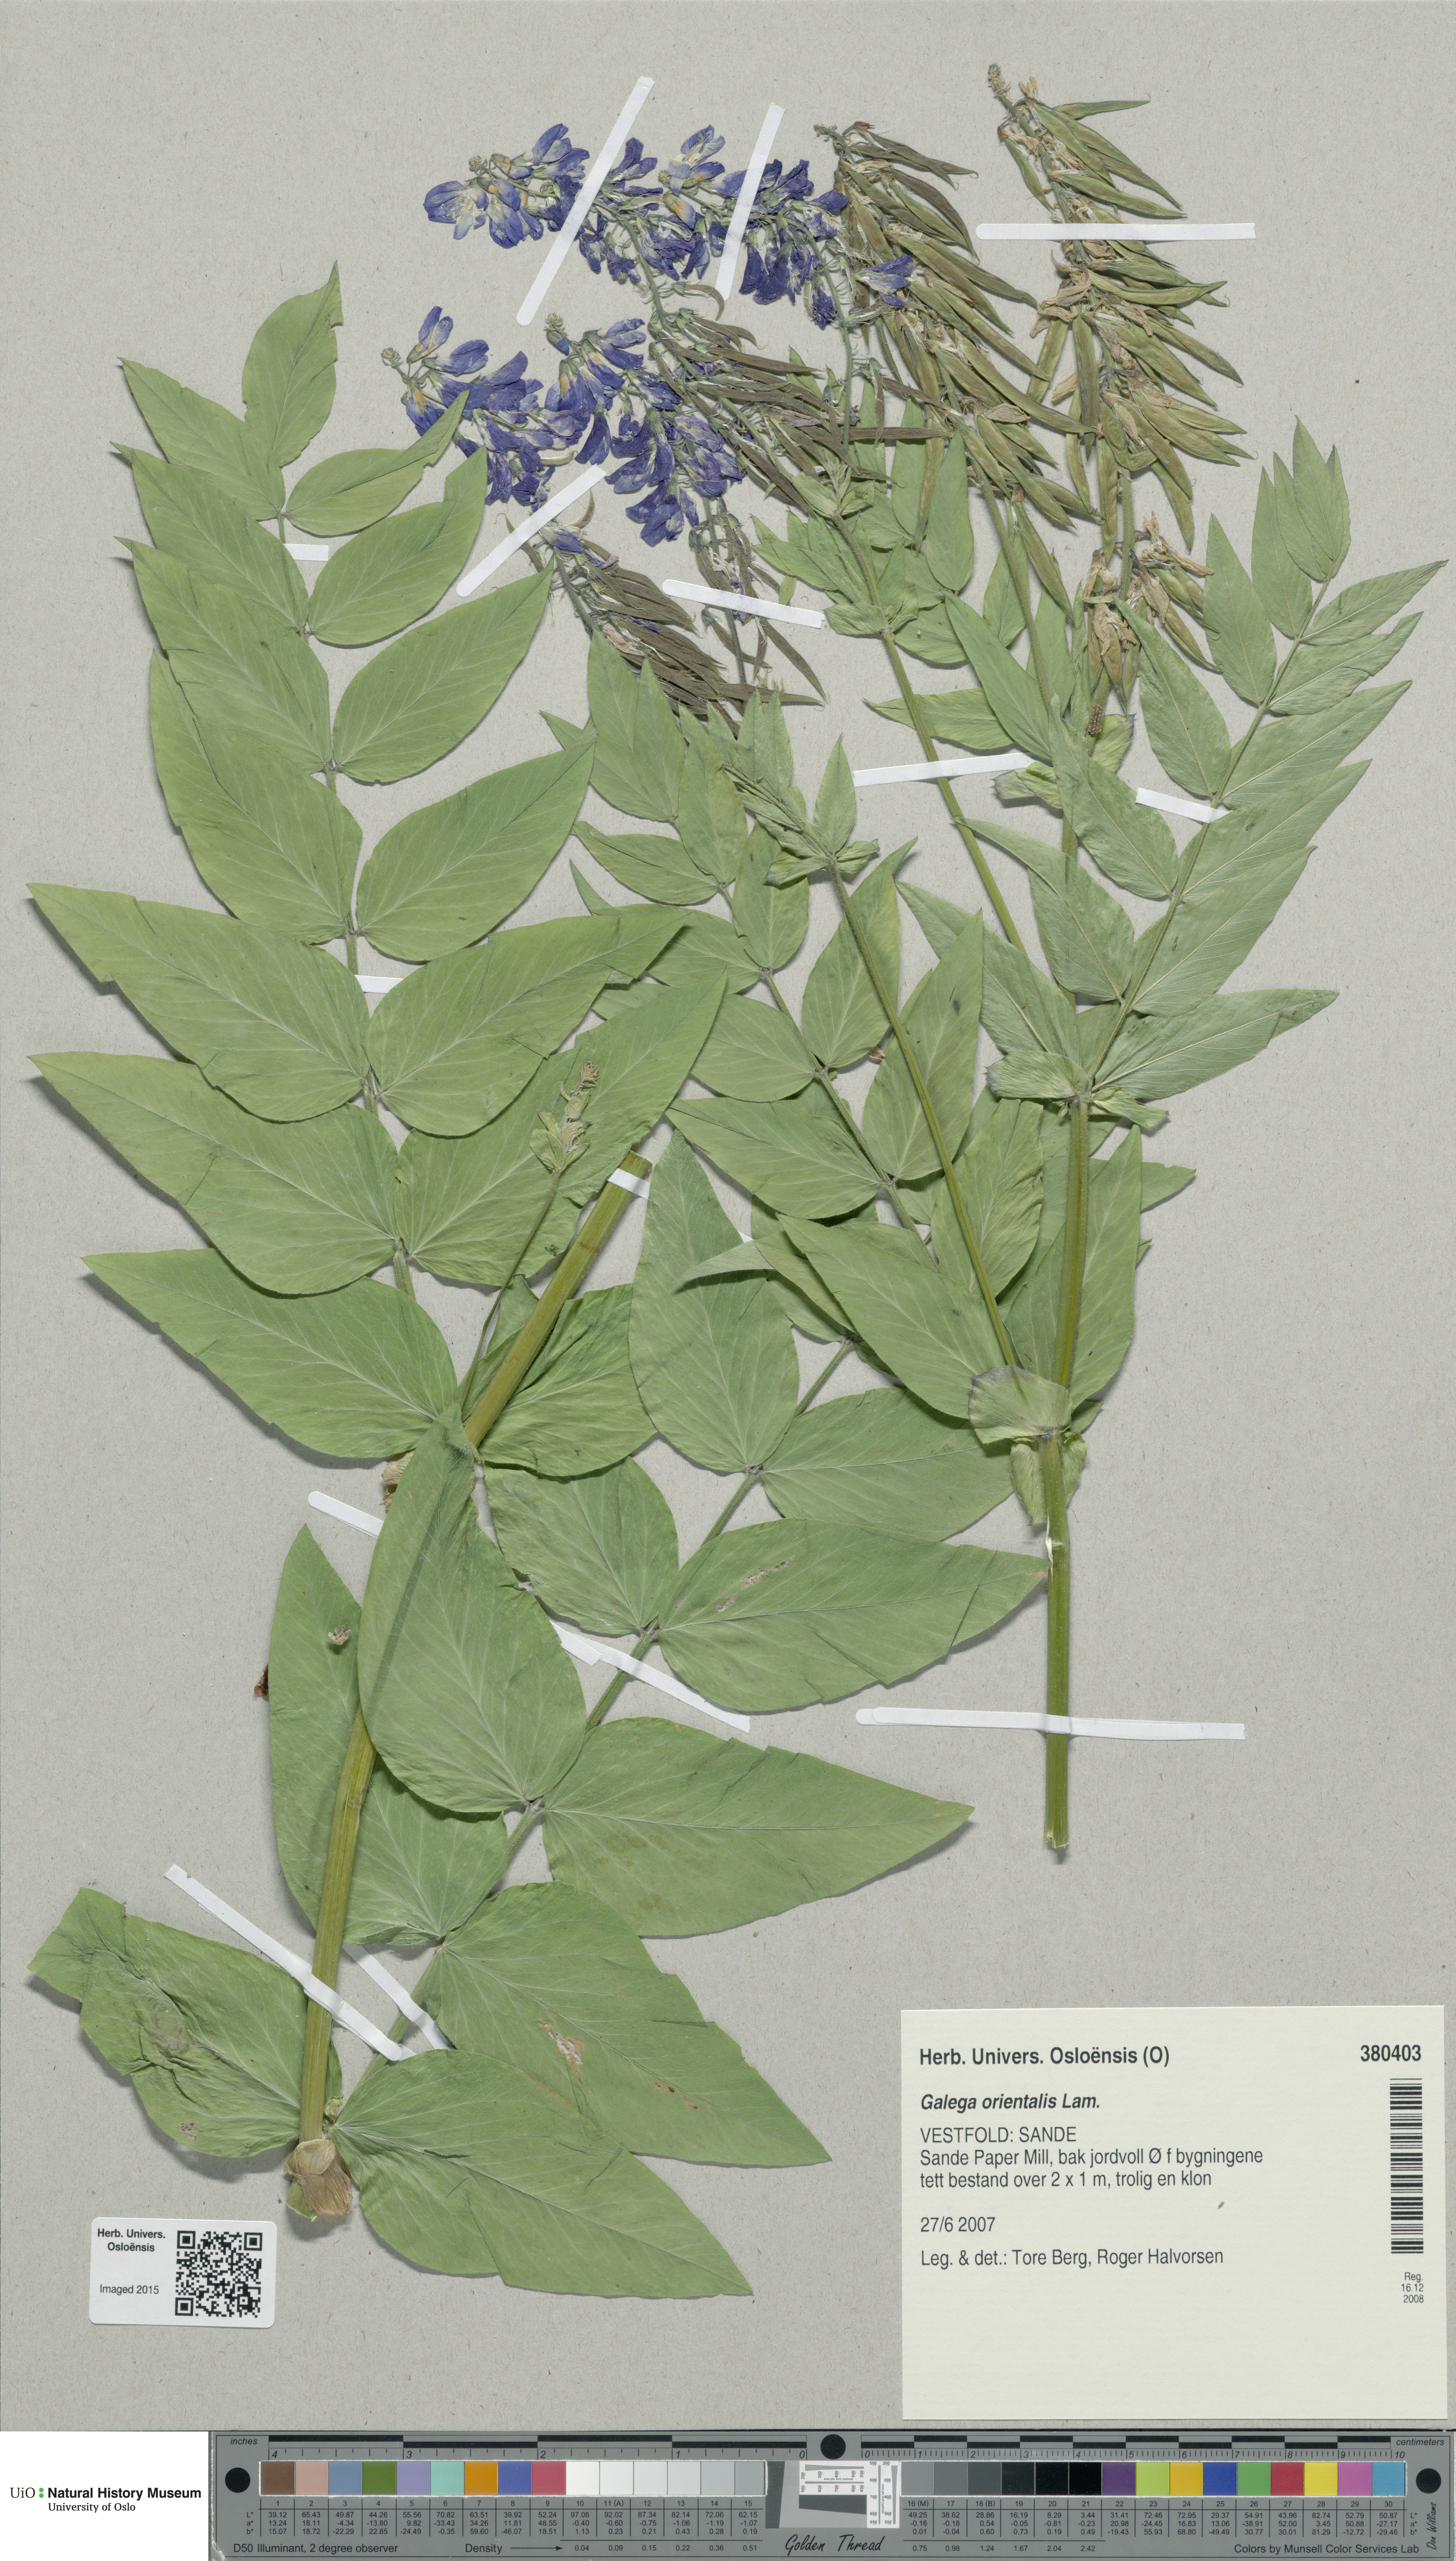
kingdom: Plantae
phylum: Tracheophyta
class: Magnoliopsida
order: Fabales
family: Fabaceae
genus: Galega
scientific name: Galega orientalis
